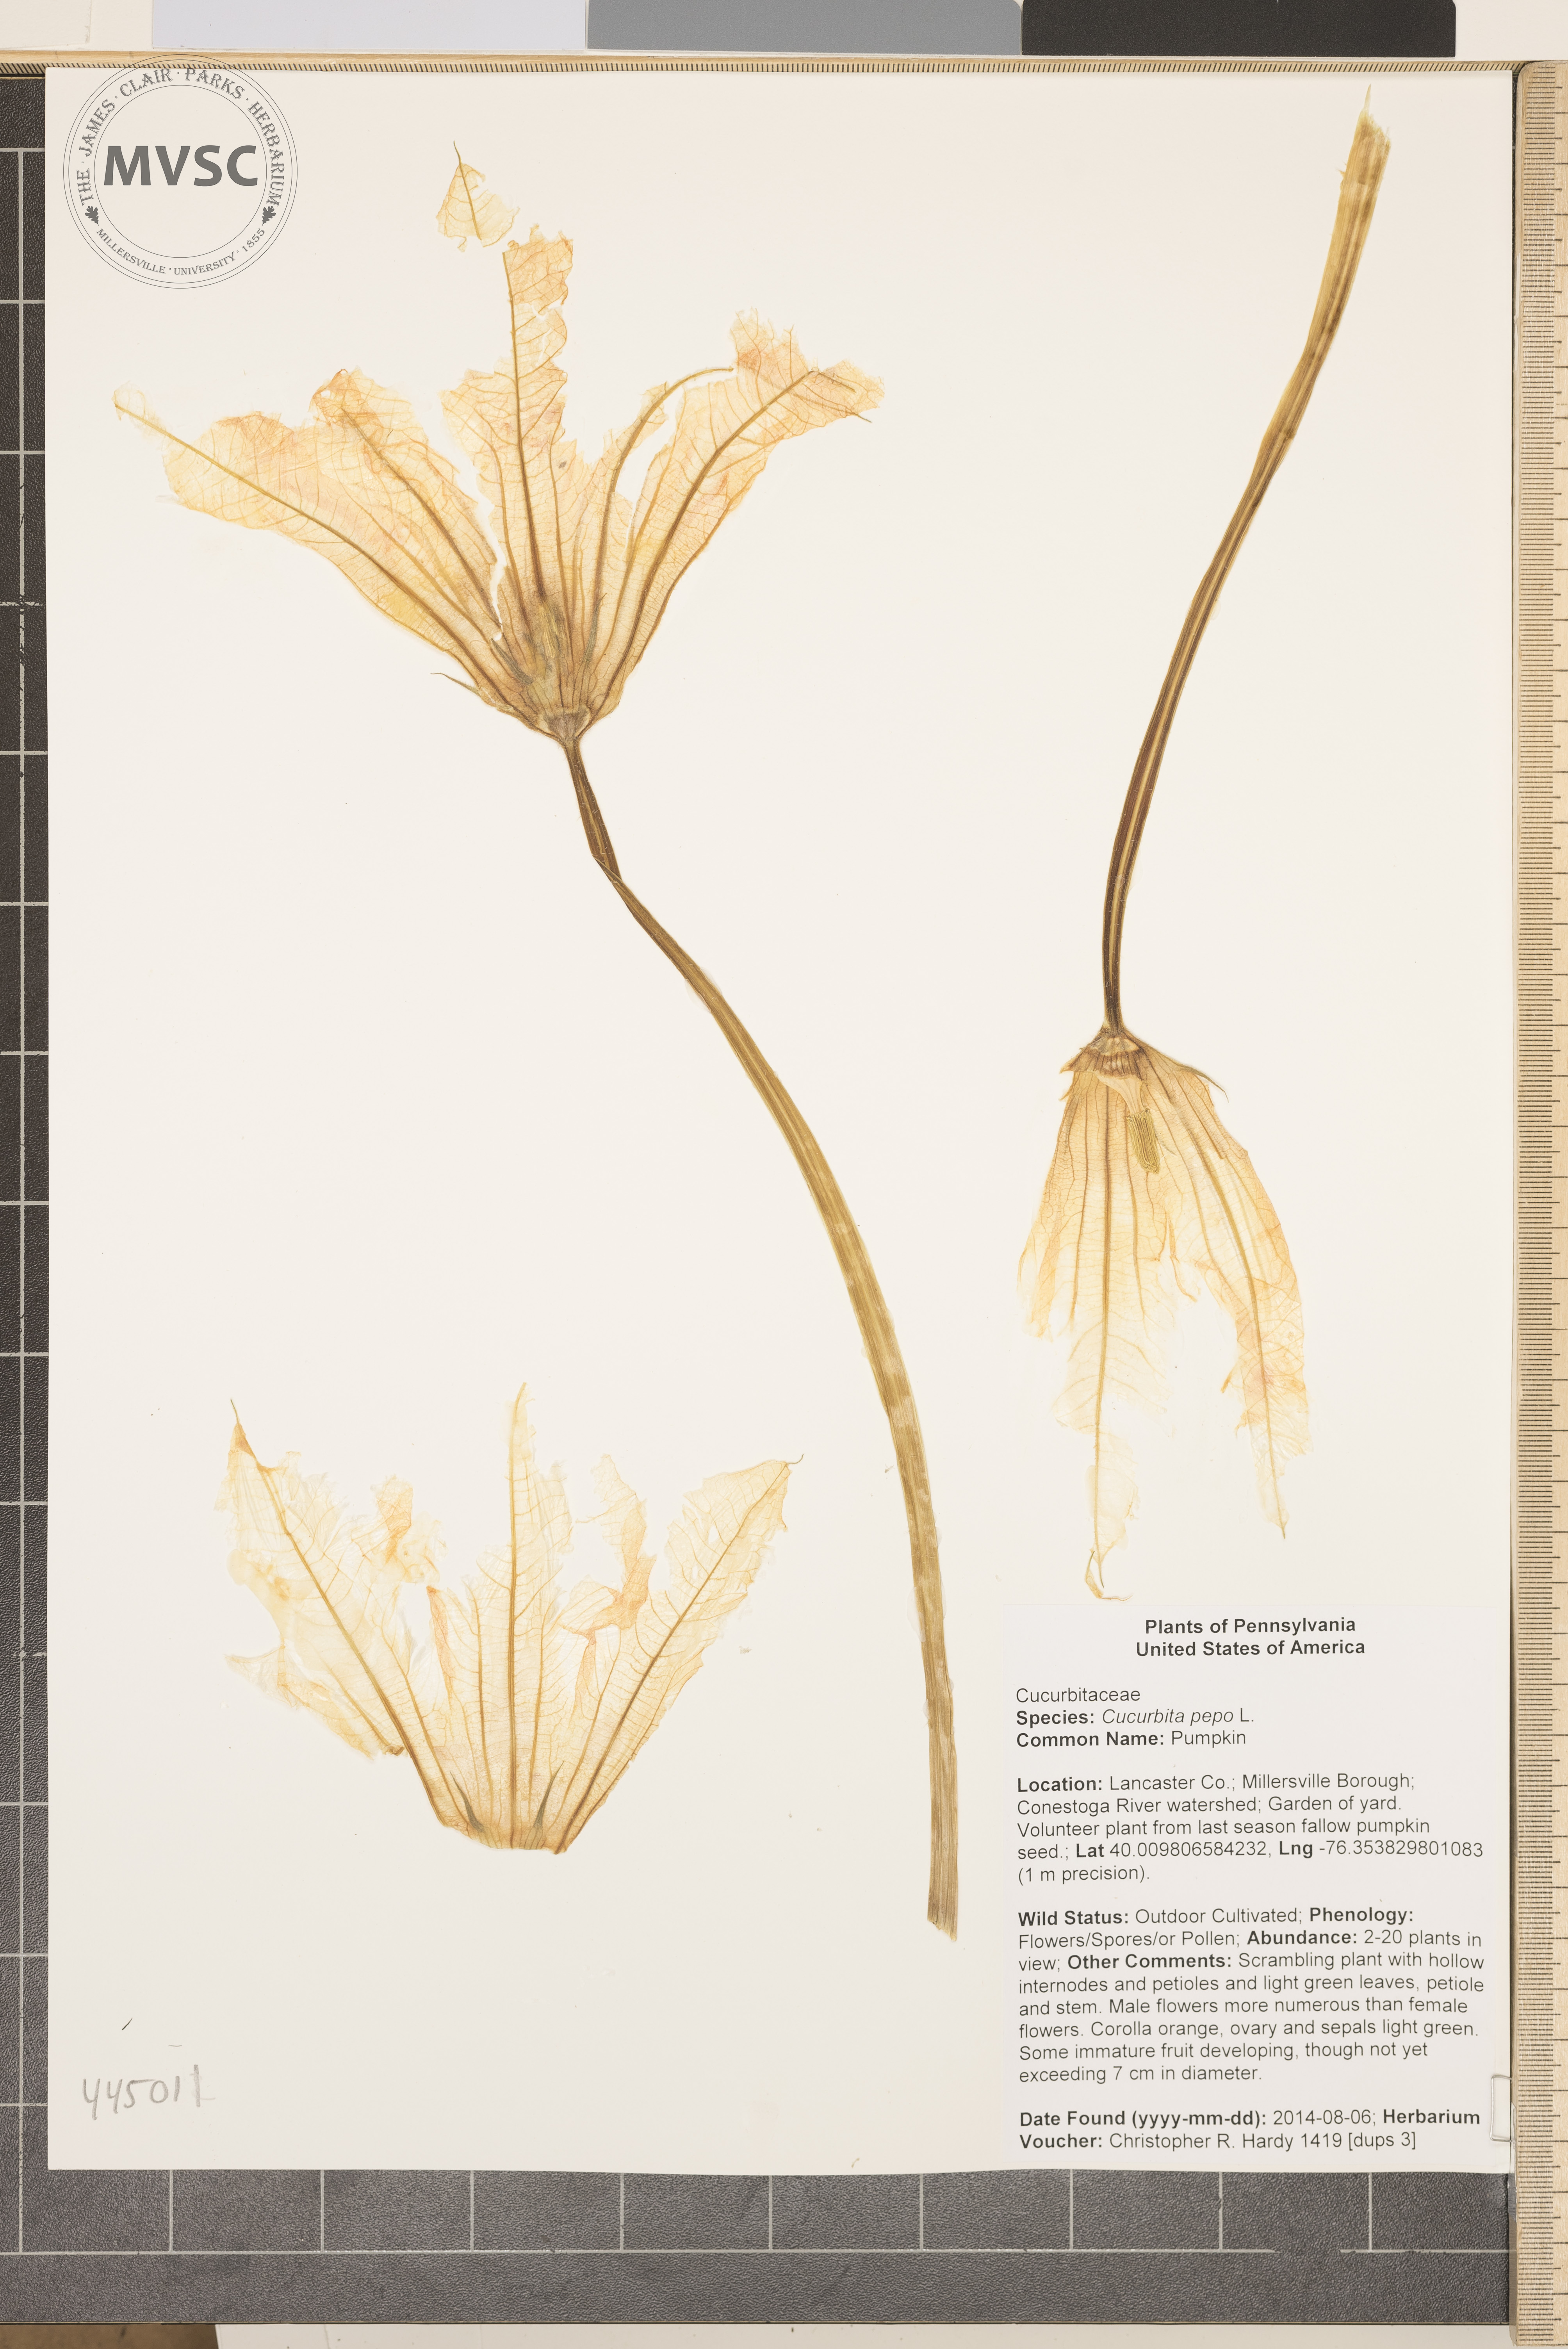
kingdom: Plantae
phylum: Tracheophyta
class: Magnoliopsida
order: Cucurbitales
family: Cucurbitaceae
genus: Cucurbita
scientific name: Cucurbita pepo
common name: Pumpkin
